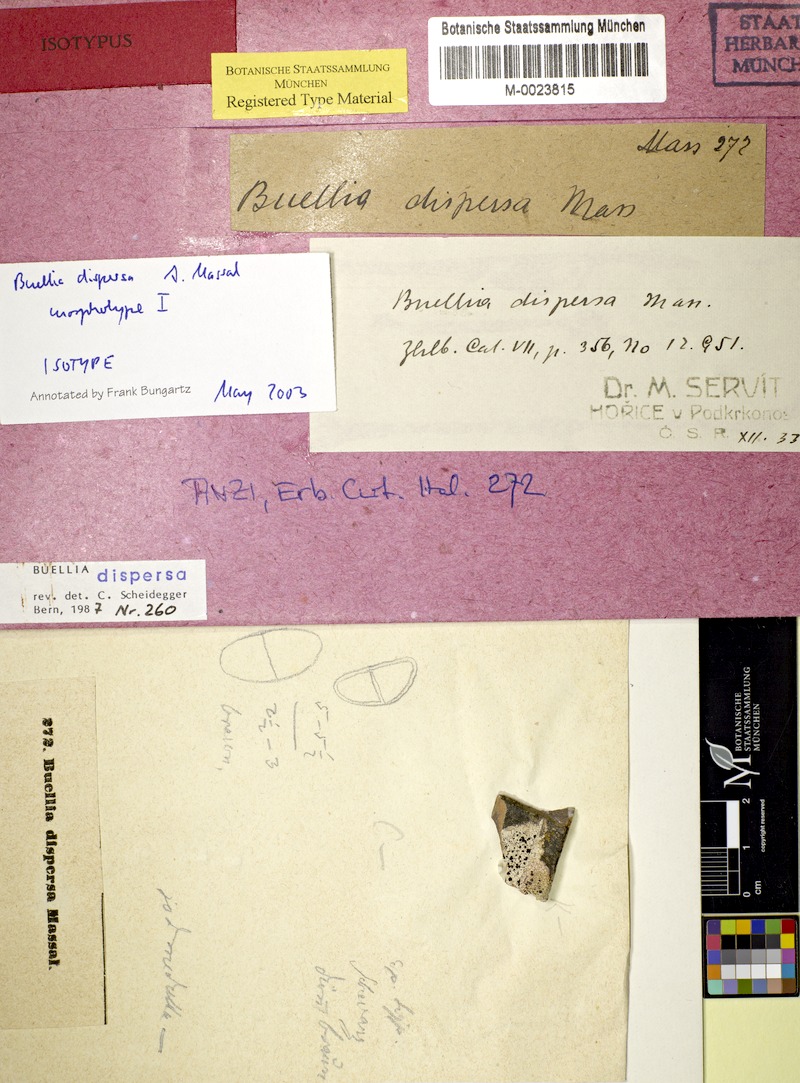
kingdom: Fungi
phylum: Ascomycota
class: Lecanoromycetes
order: Caliciales
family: Caliciaceae
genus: Buellia
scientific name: Buellia dispersa
